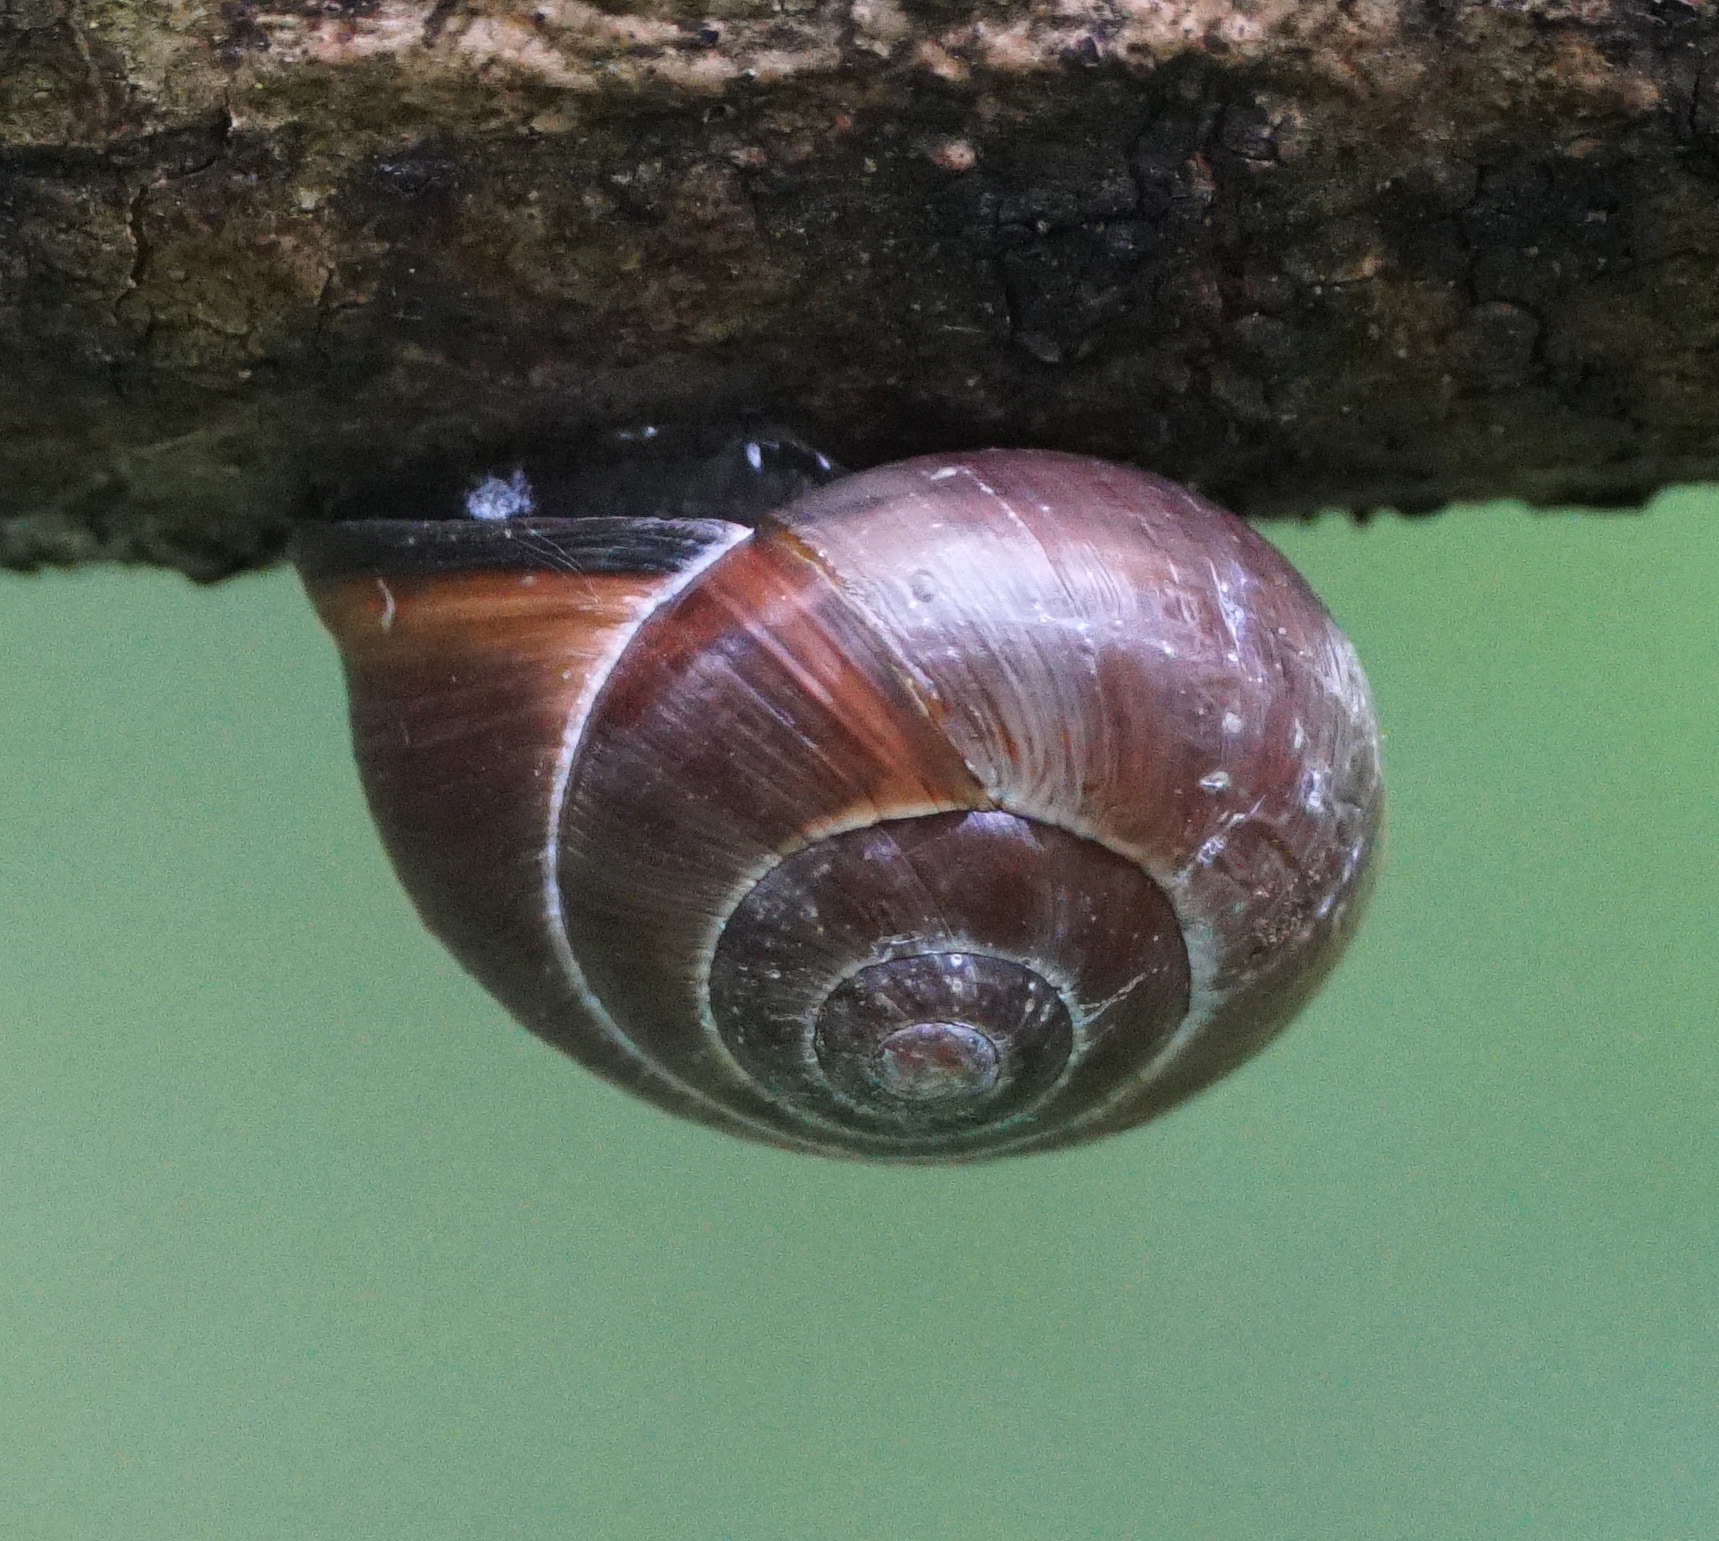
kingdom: Animalia
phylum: Mollusca
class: Gastropoda
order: Stylommatophora
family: Helicidae
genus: Cepaea
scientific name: Cepaea nemoralis
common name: Lundsnegl
